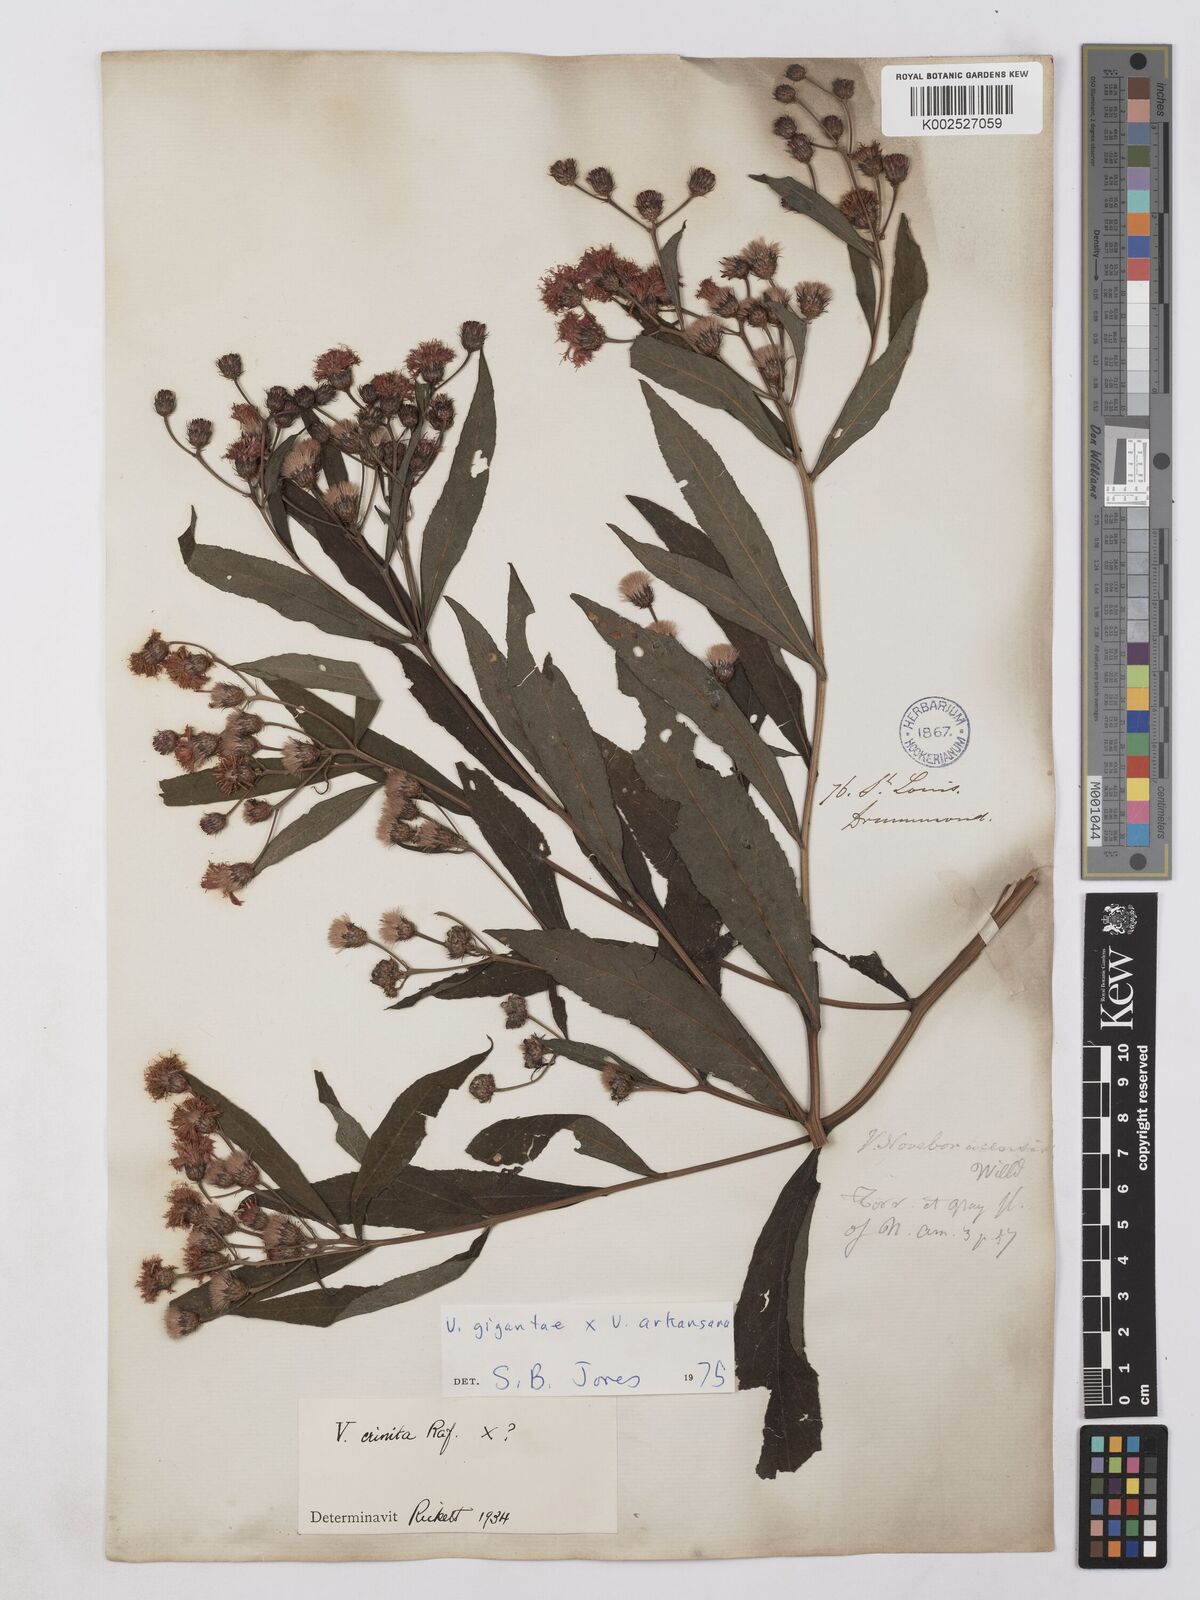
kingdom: Plantae
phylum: Tracheophyta
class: Magnoliopsida
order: Asterales
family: Asteraceae
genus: Vernonia
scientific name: Vernonia gigantea
